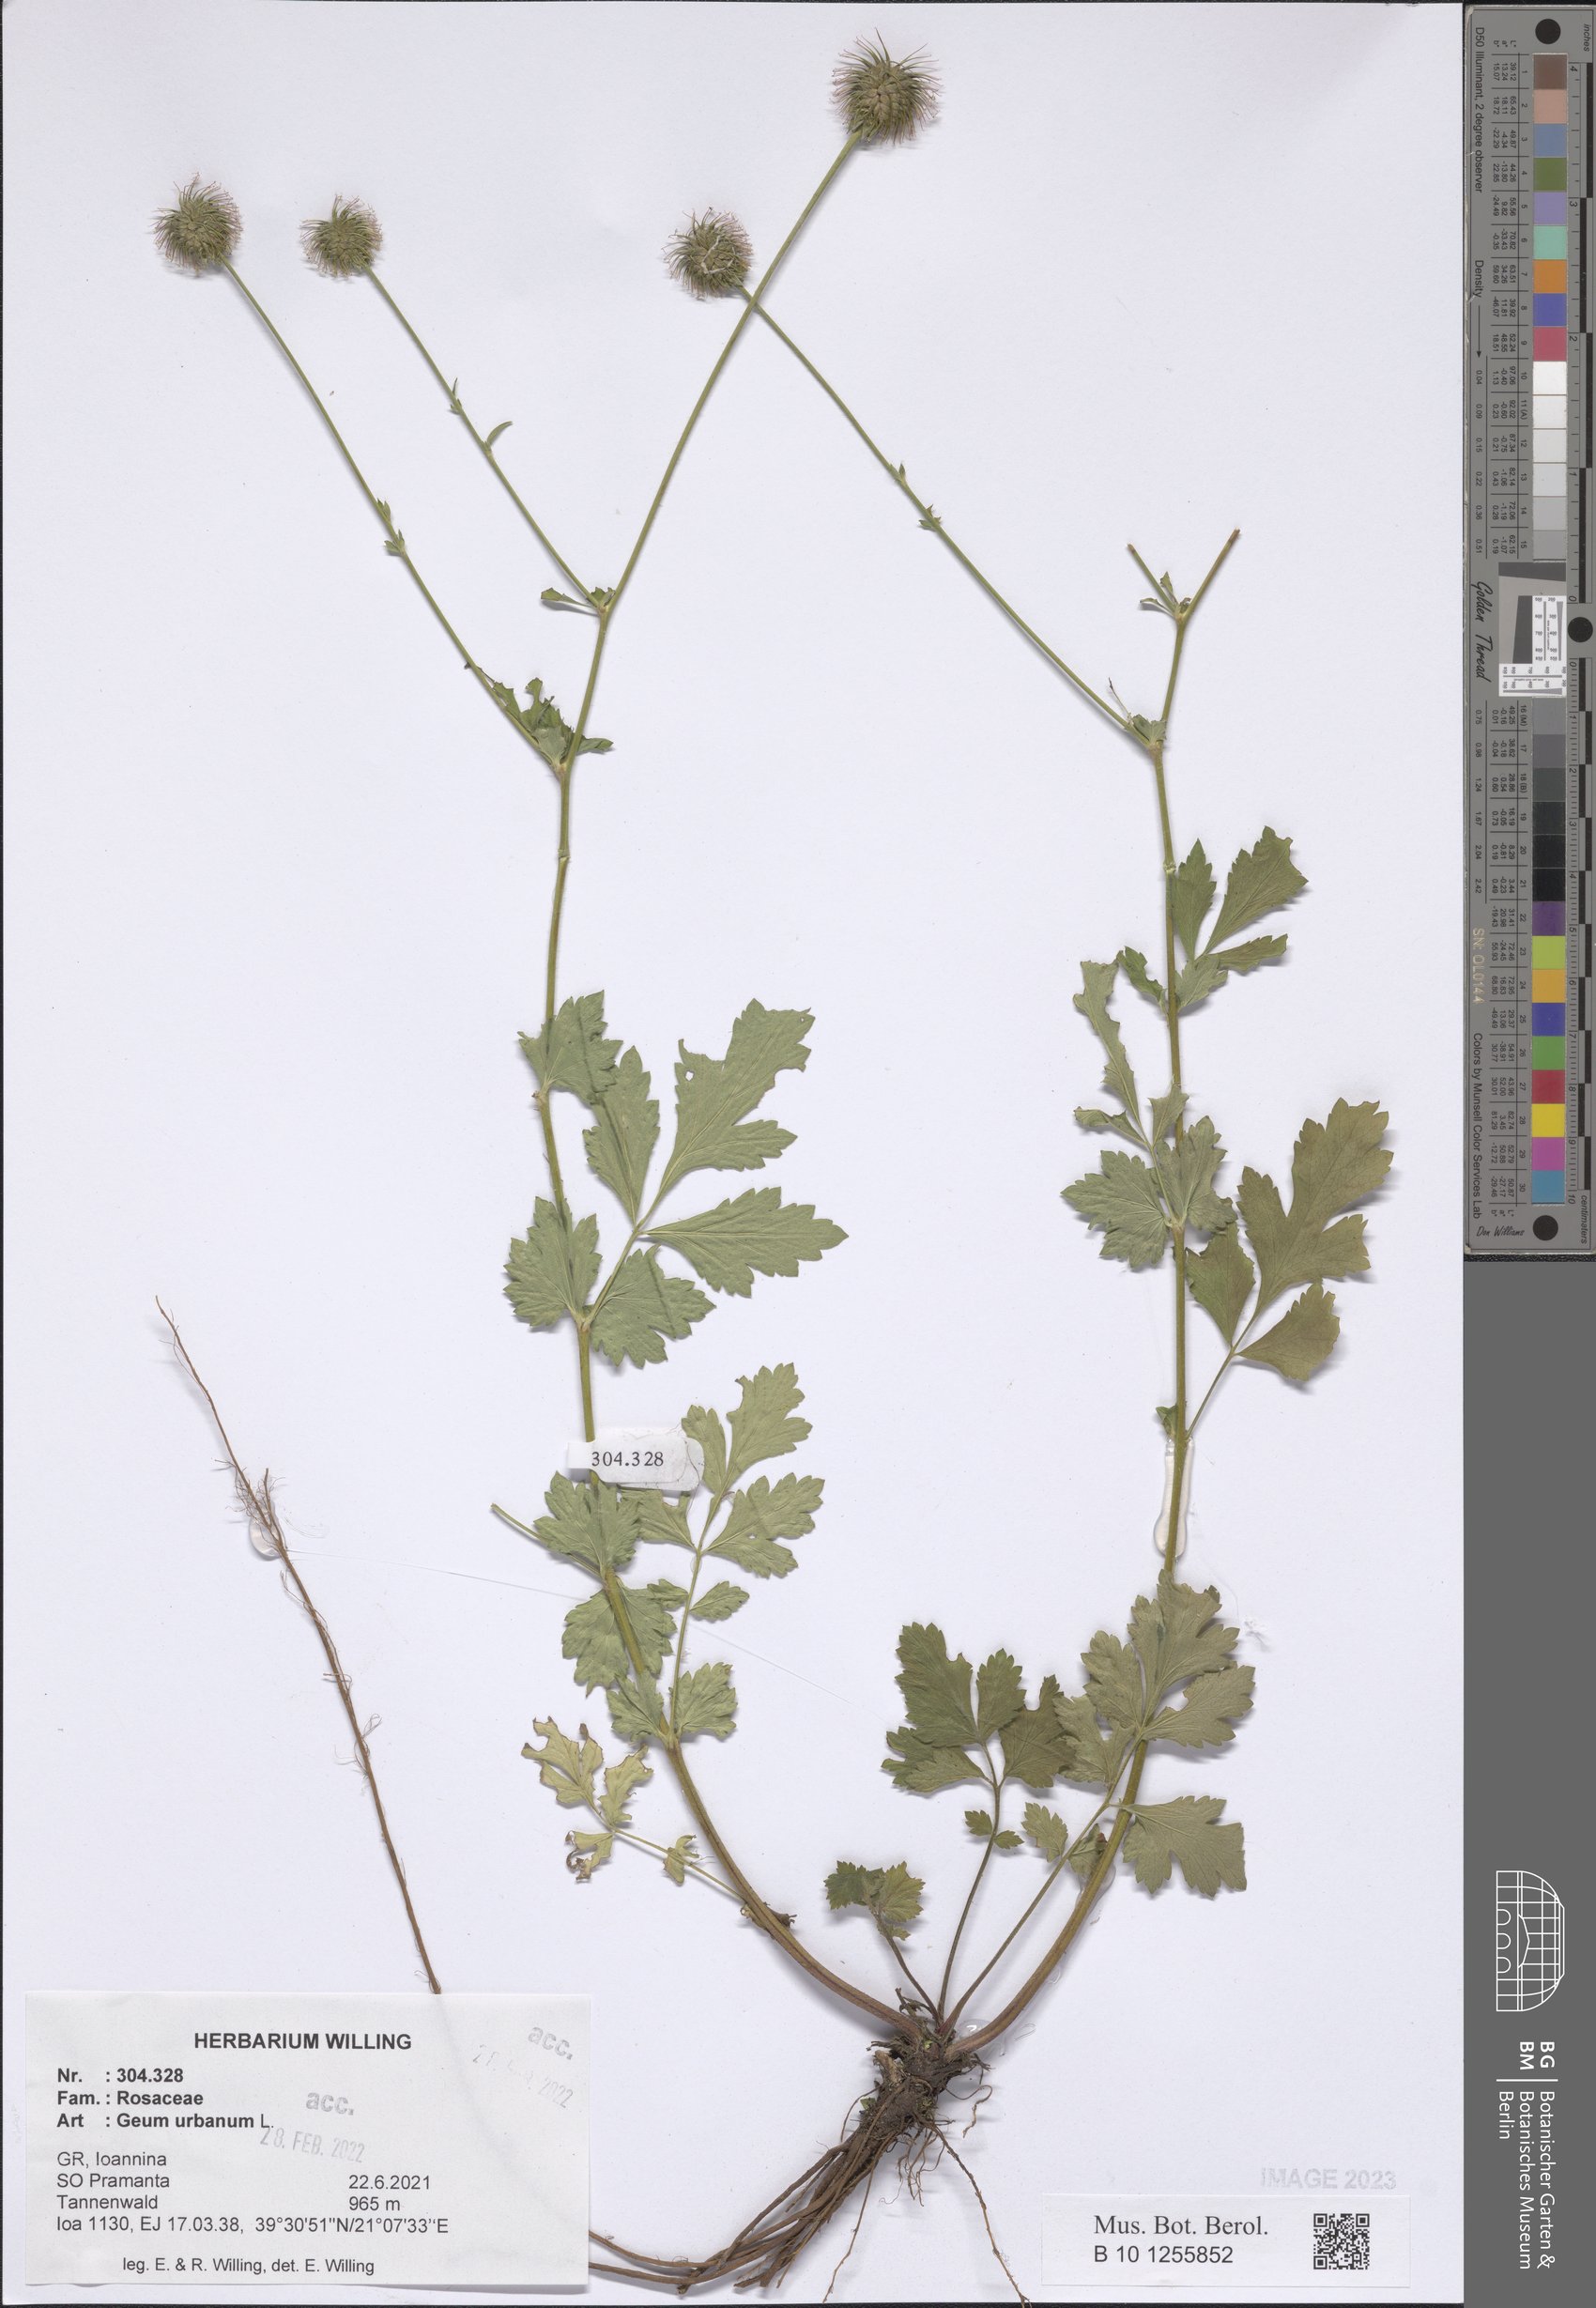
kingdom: Plantae
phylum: Tracheophyta
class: Magnoliopsida
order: Rosales
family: Rosaceae
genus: Geum
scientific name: Geum urbanum
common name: Wood avens
